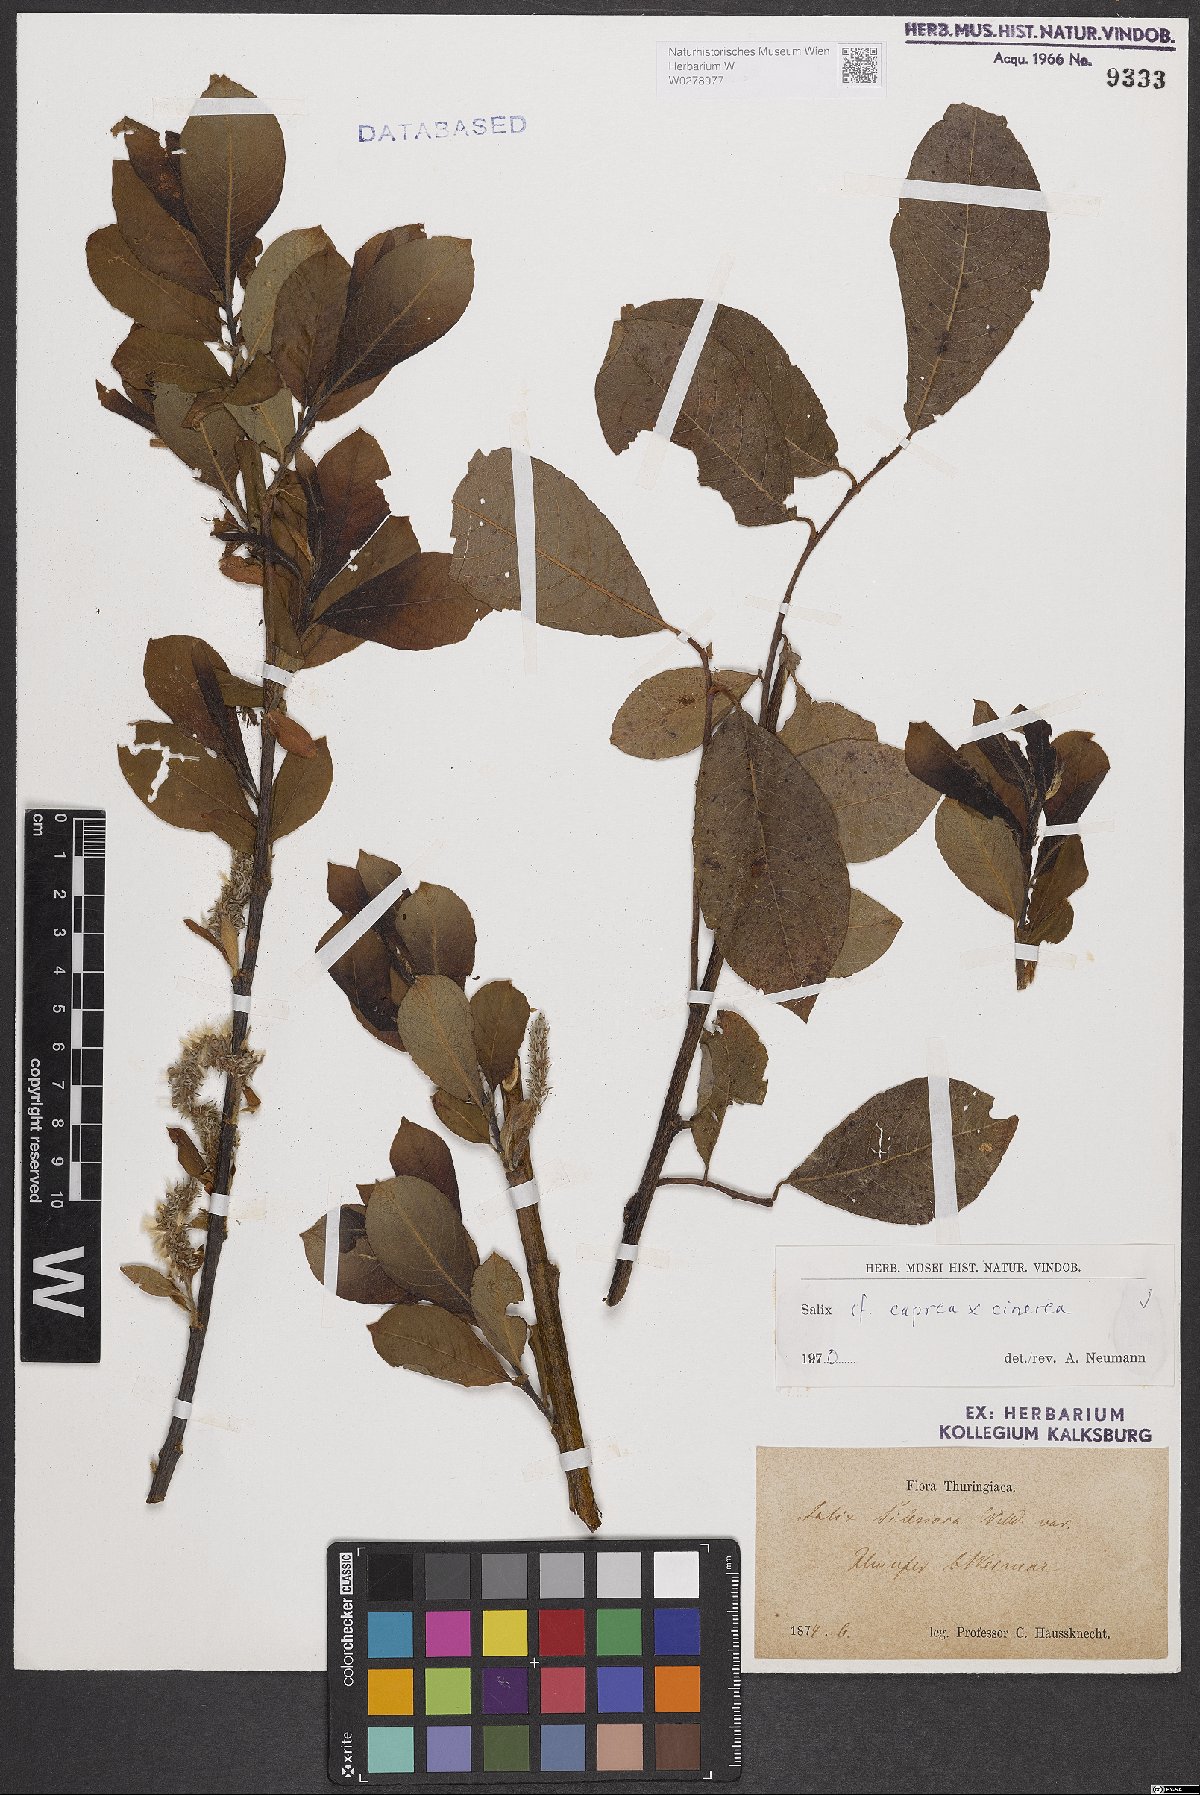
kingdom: Plantae
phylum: Tracheophyta
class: Magnoliopsida
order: Malpighiales
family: Salicaceae
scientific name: Salicaceae
